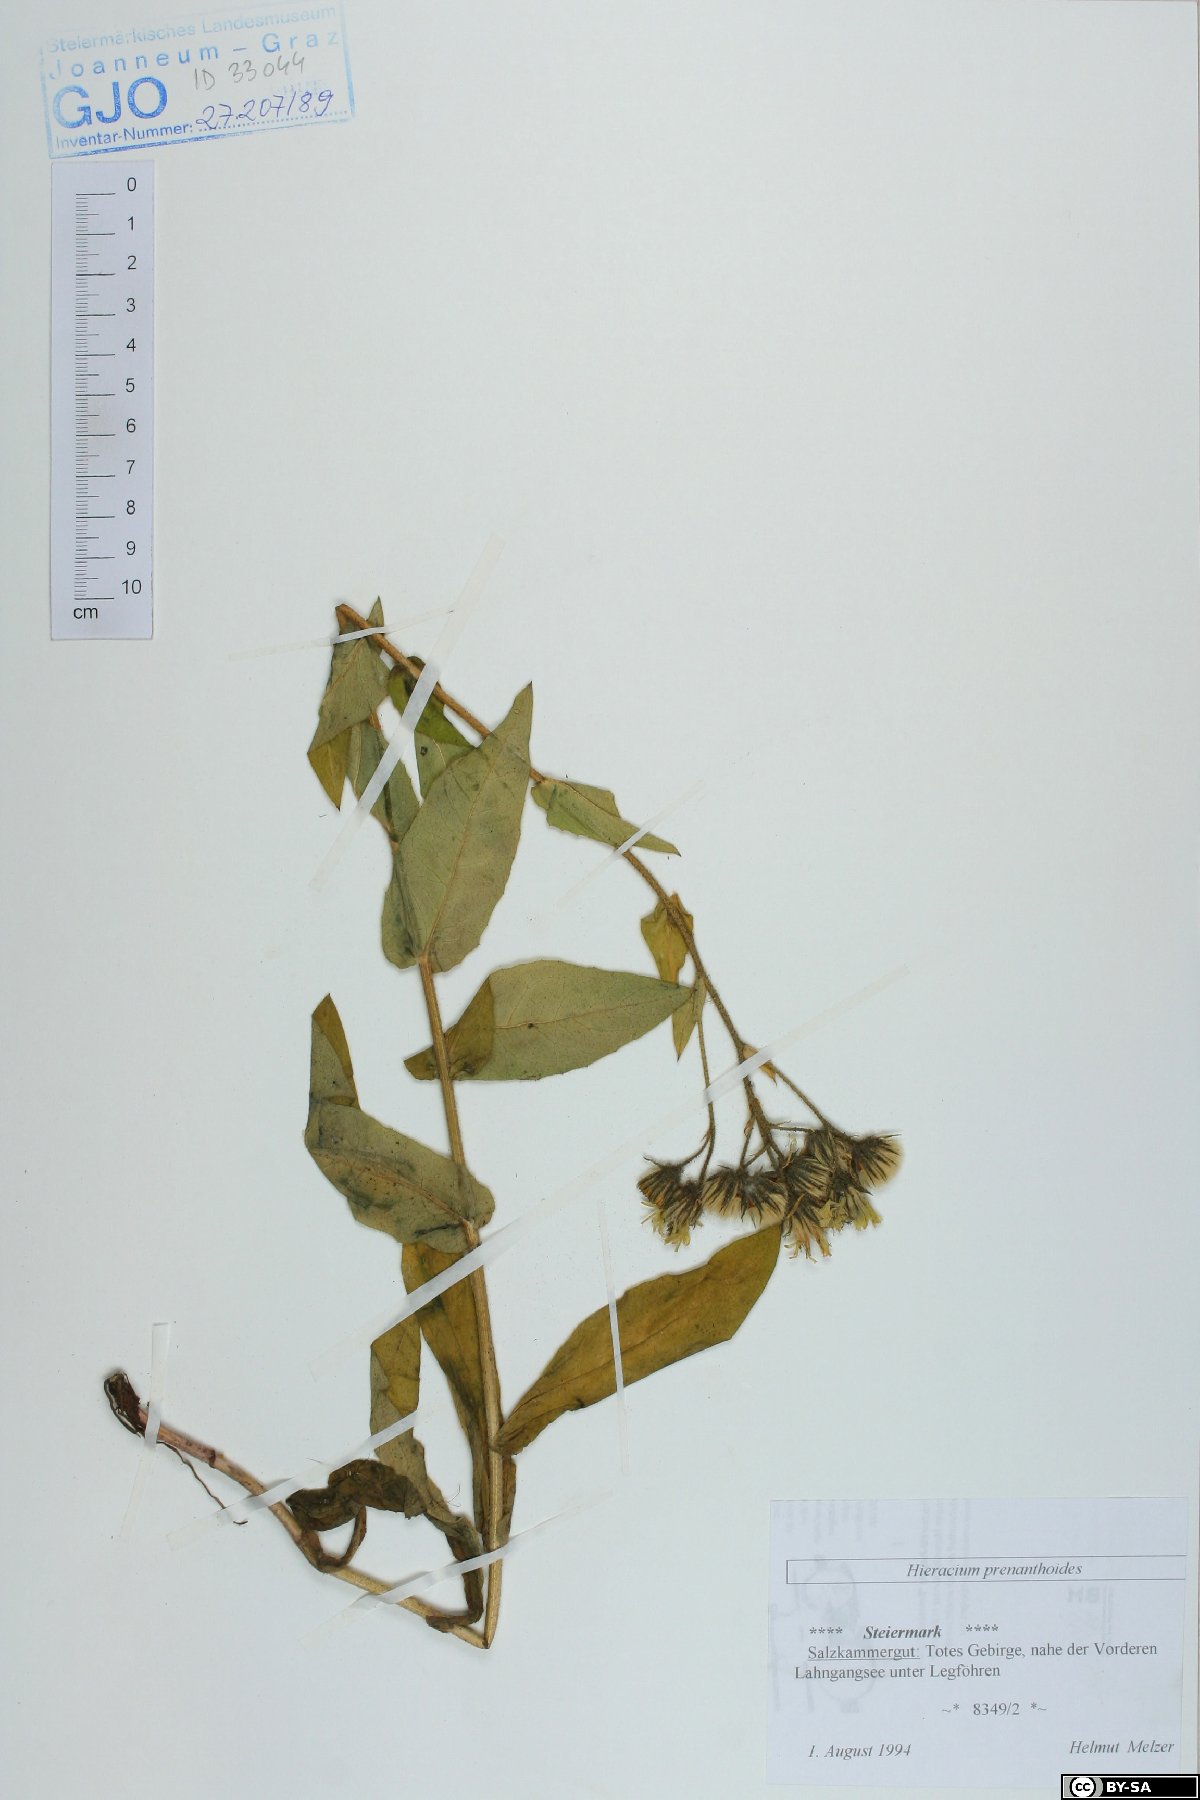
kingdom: Plantae
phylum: Tracheophyta
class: Magnoliopsida
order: Asterales
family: Asteraceae
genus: Hieracium
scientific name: Hieracium prenanthoides
